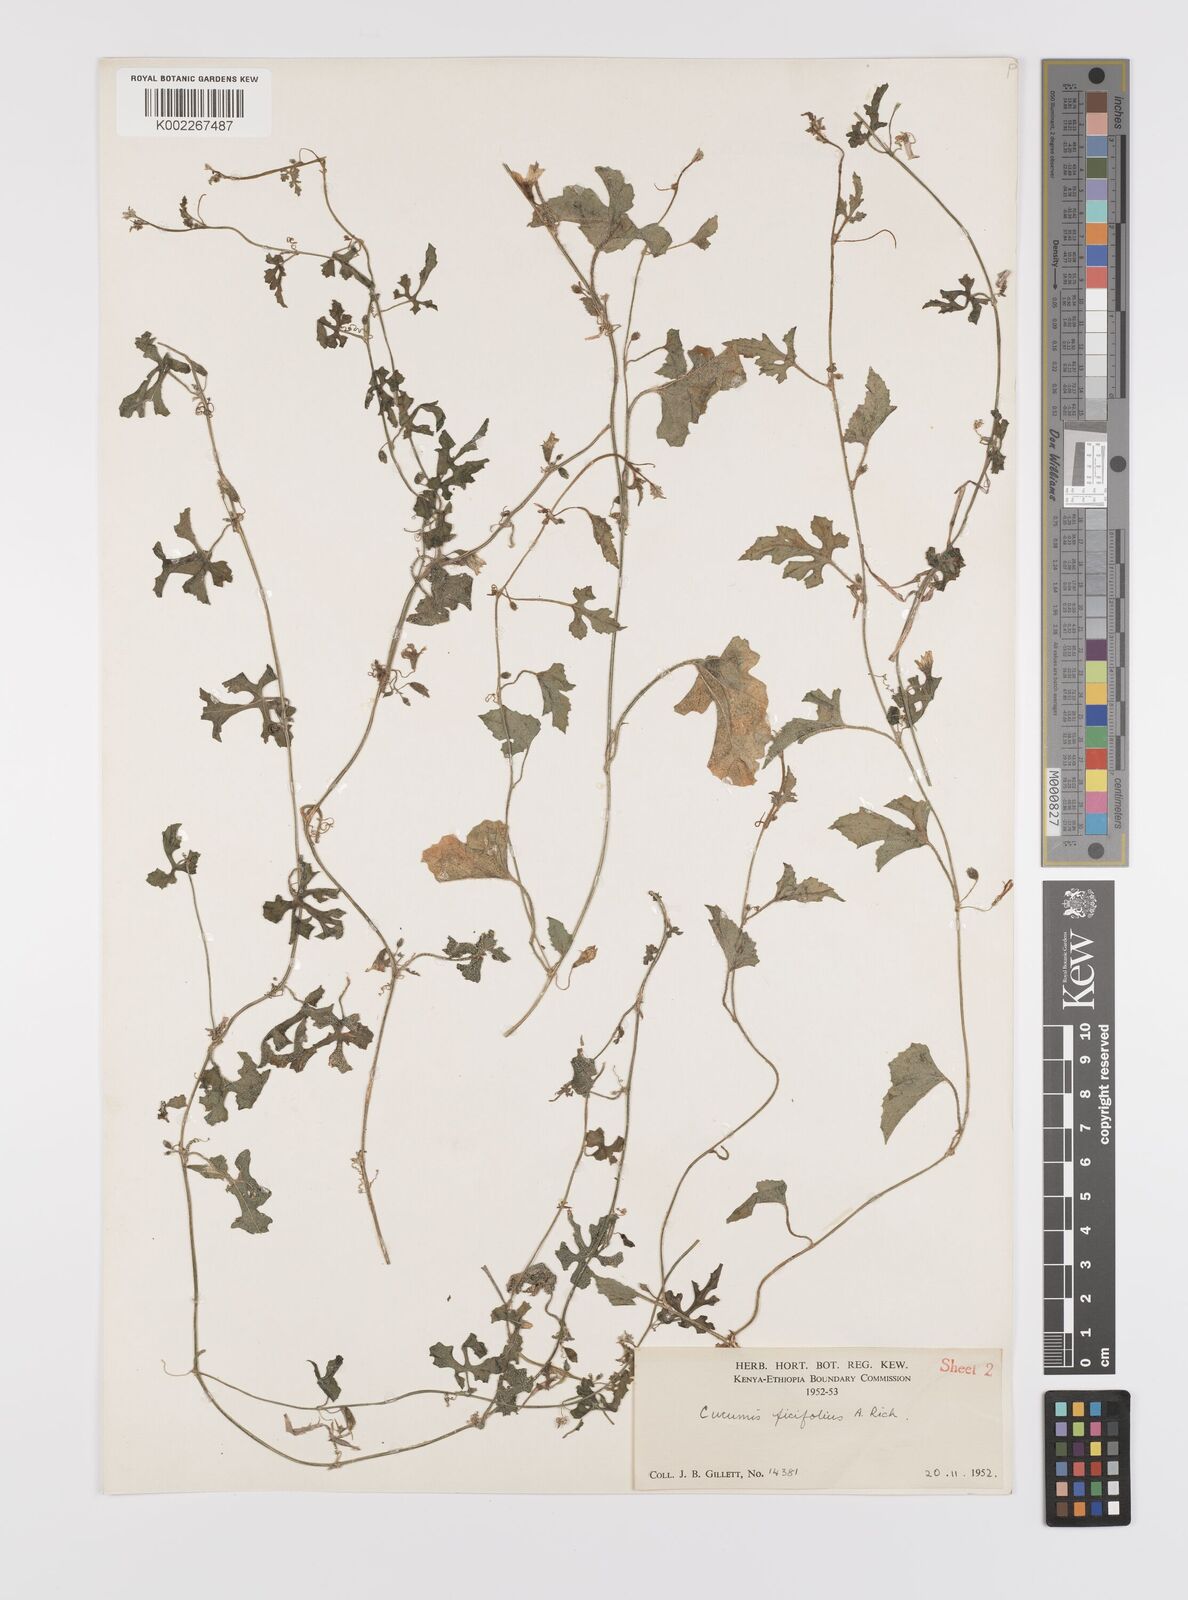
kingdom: Plantae
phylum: Tracheophyta
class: Magnoliopsida
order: Cucurbitales
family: Cucurbitaceae
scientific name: Cucurbitaceae
